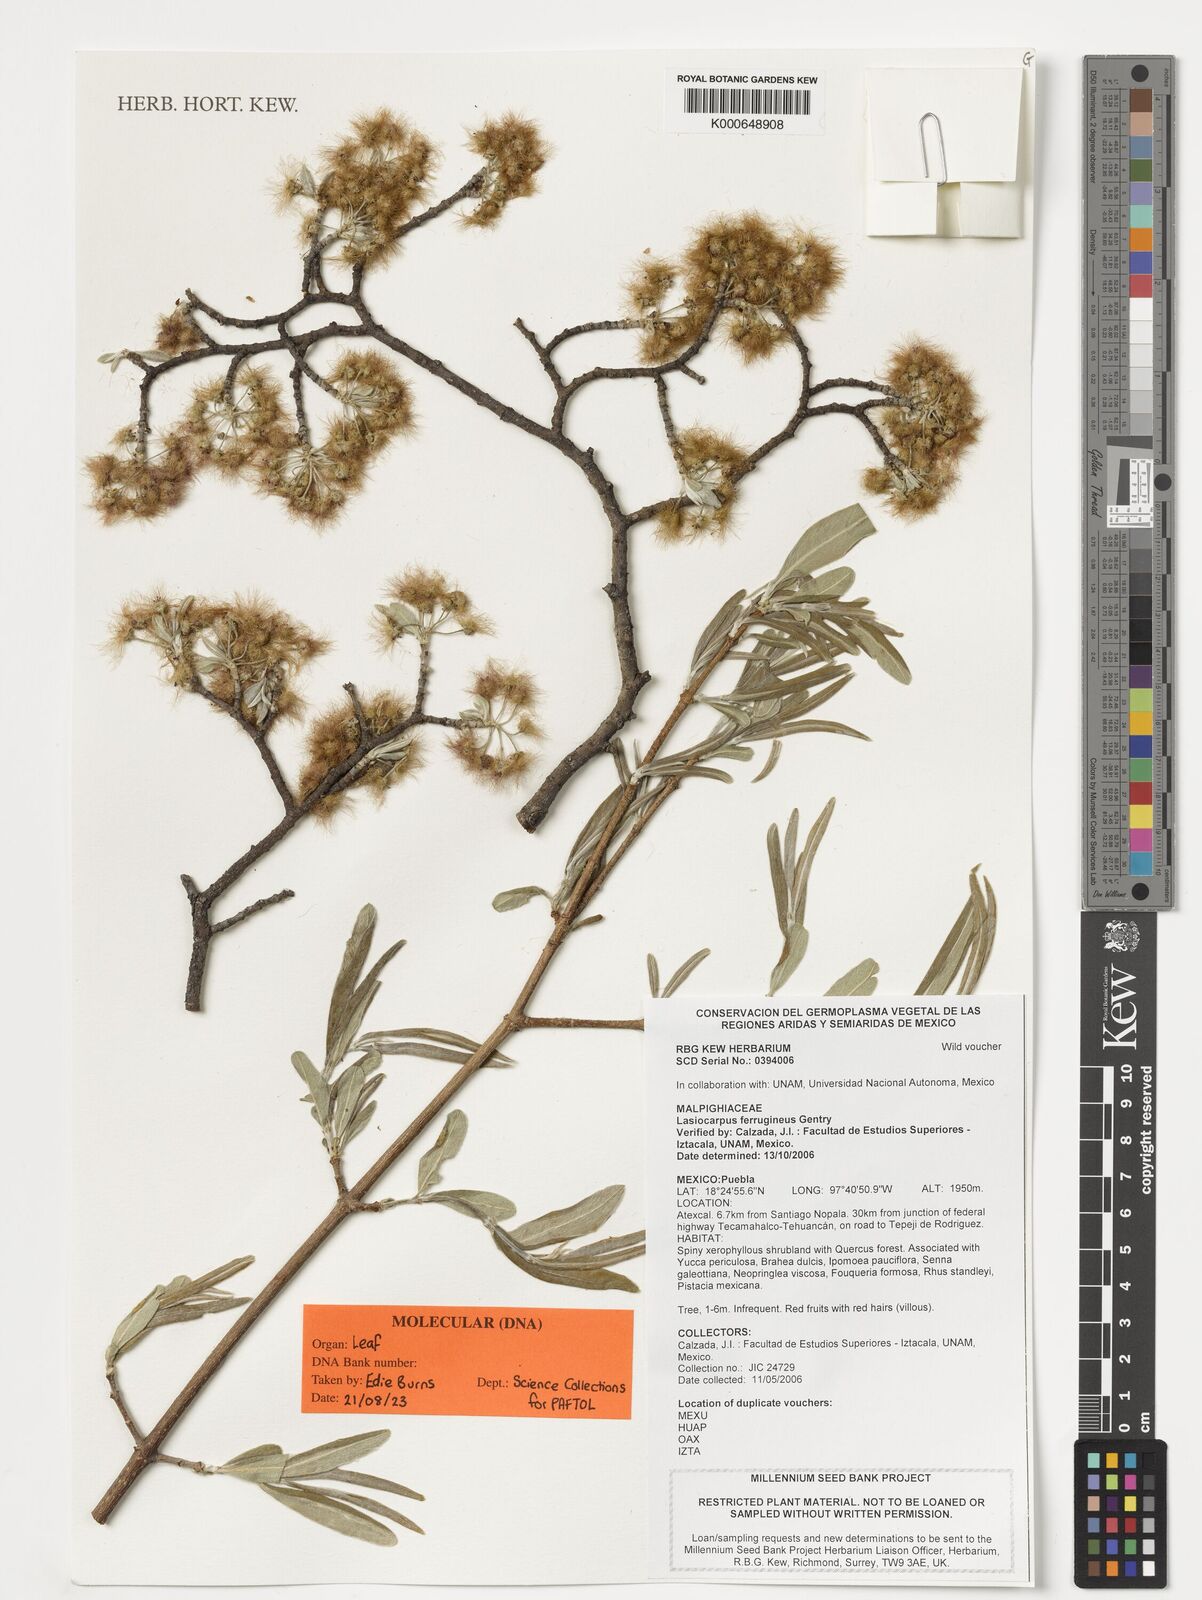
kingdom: Plantae
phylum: Tracheophyta
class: Magnoliopsida
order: Malpighiales
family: Malpighiaceae
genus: Lasiocarpus
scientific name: Lasiocarpus ferrugineus
